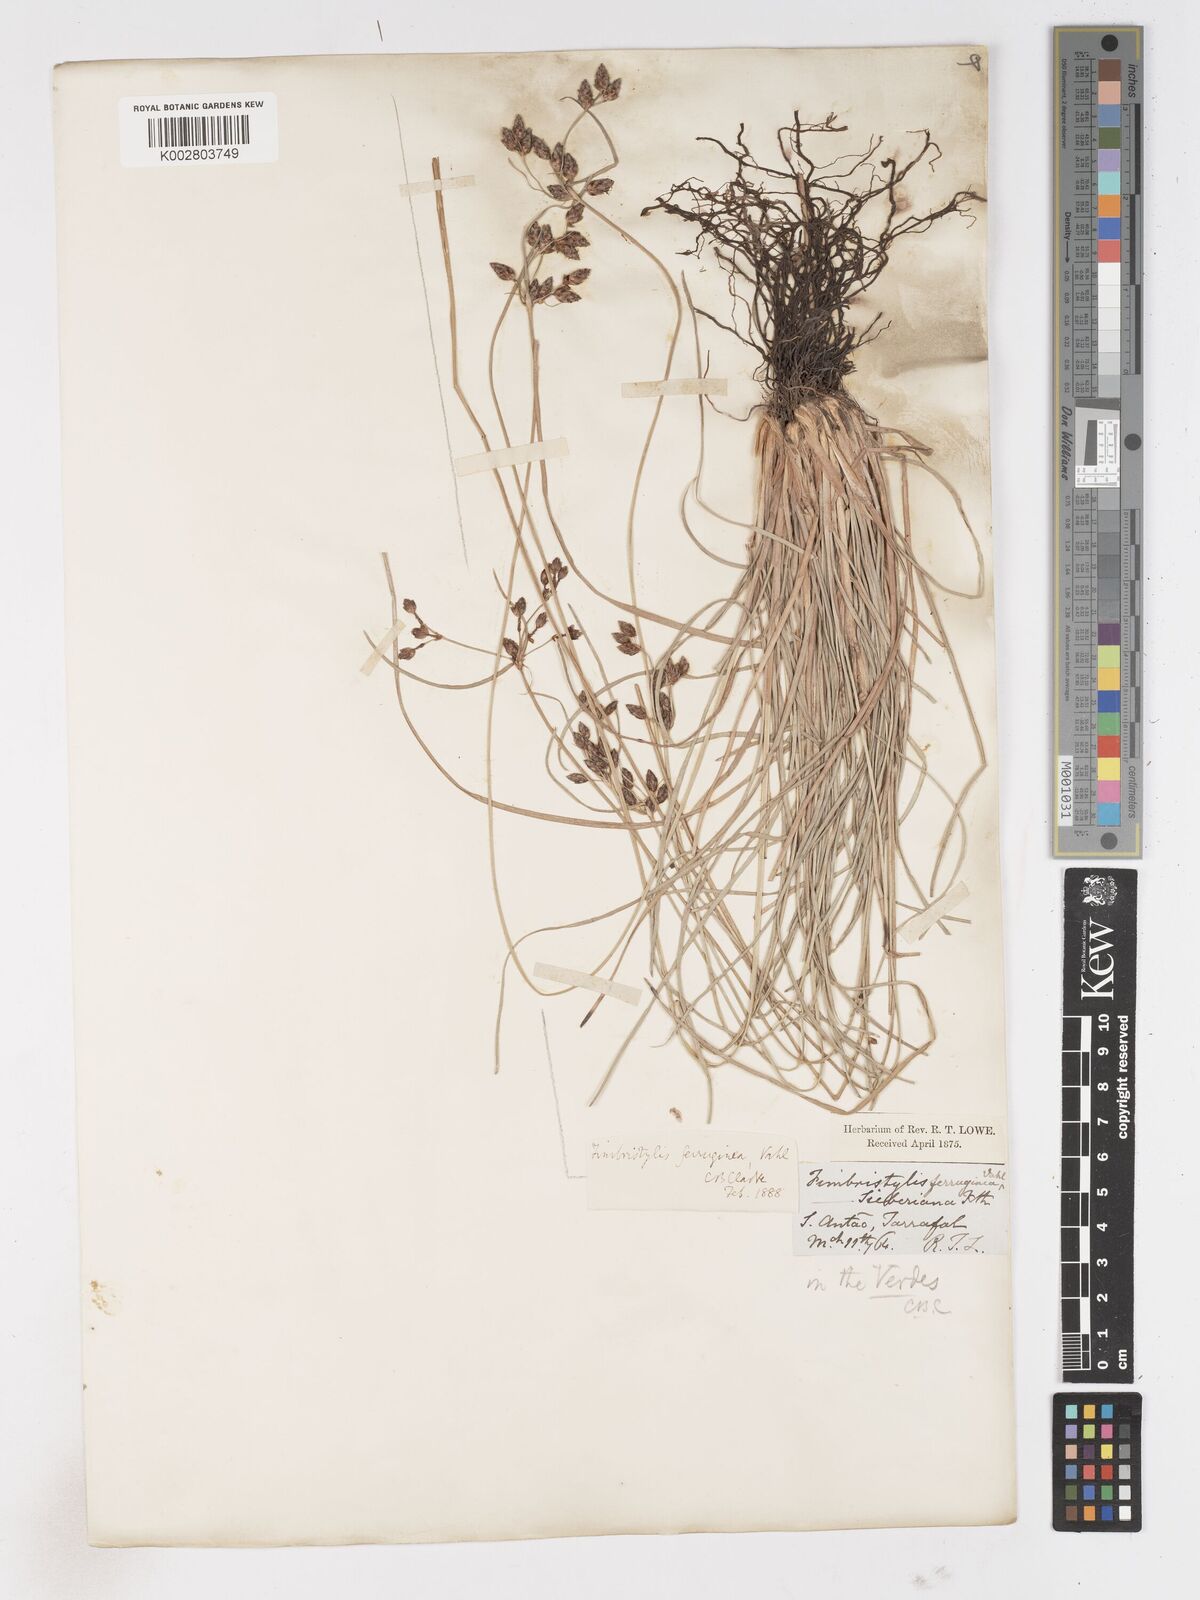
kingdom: Plantae
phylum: Tracheophyta
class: Liliopsida
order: Poales
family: Cyperaceae
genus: Fimbristylis
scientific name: Fimbristylis ferruginea
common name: West indian fimbry
